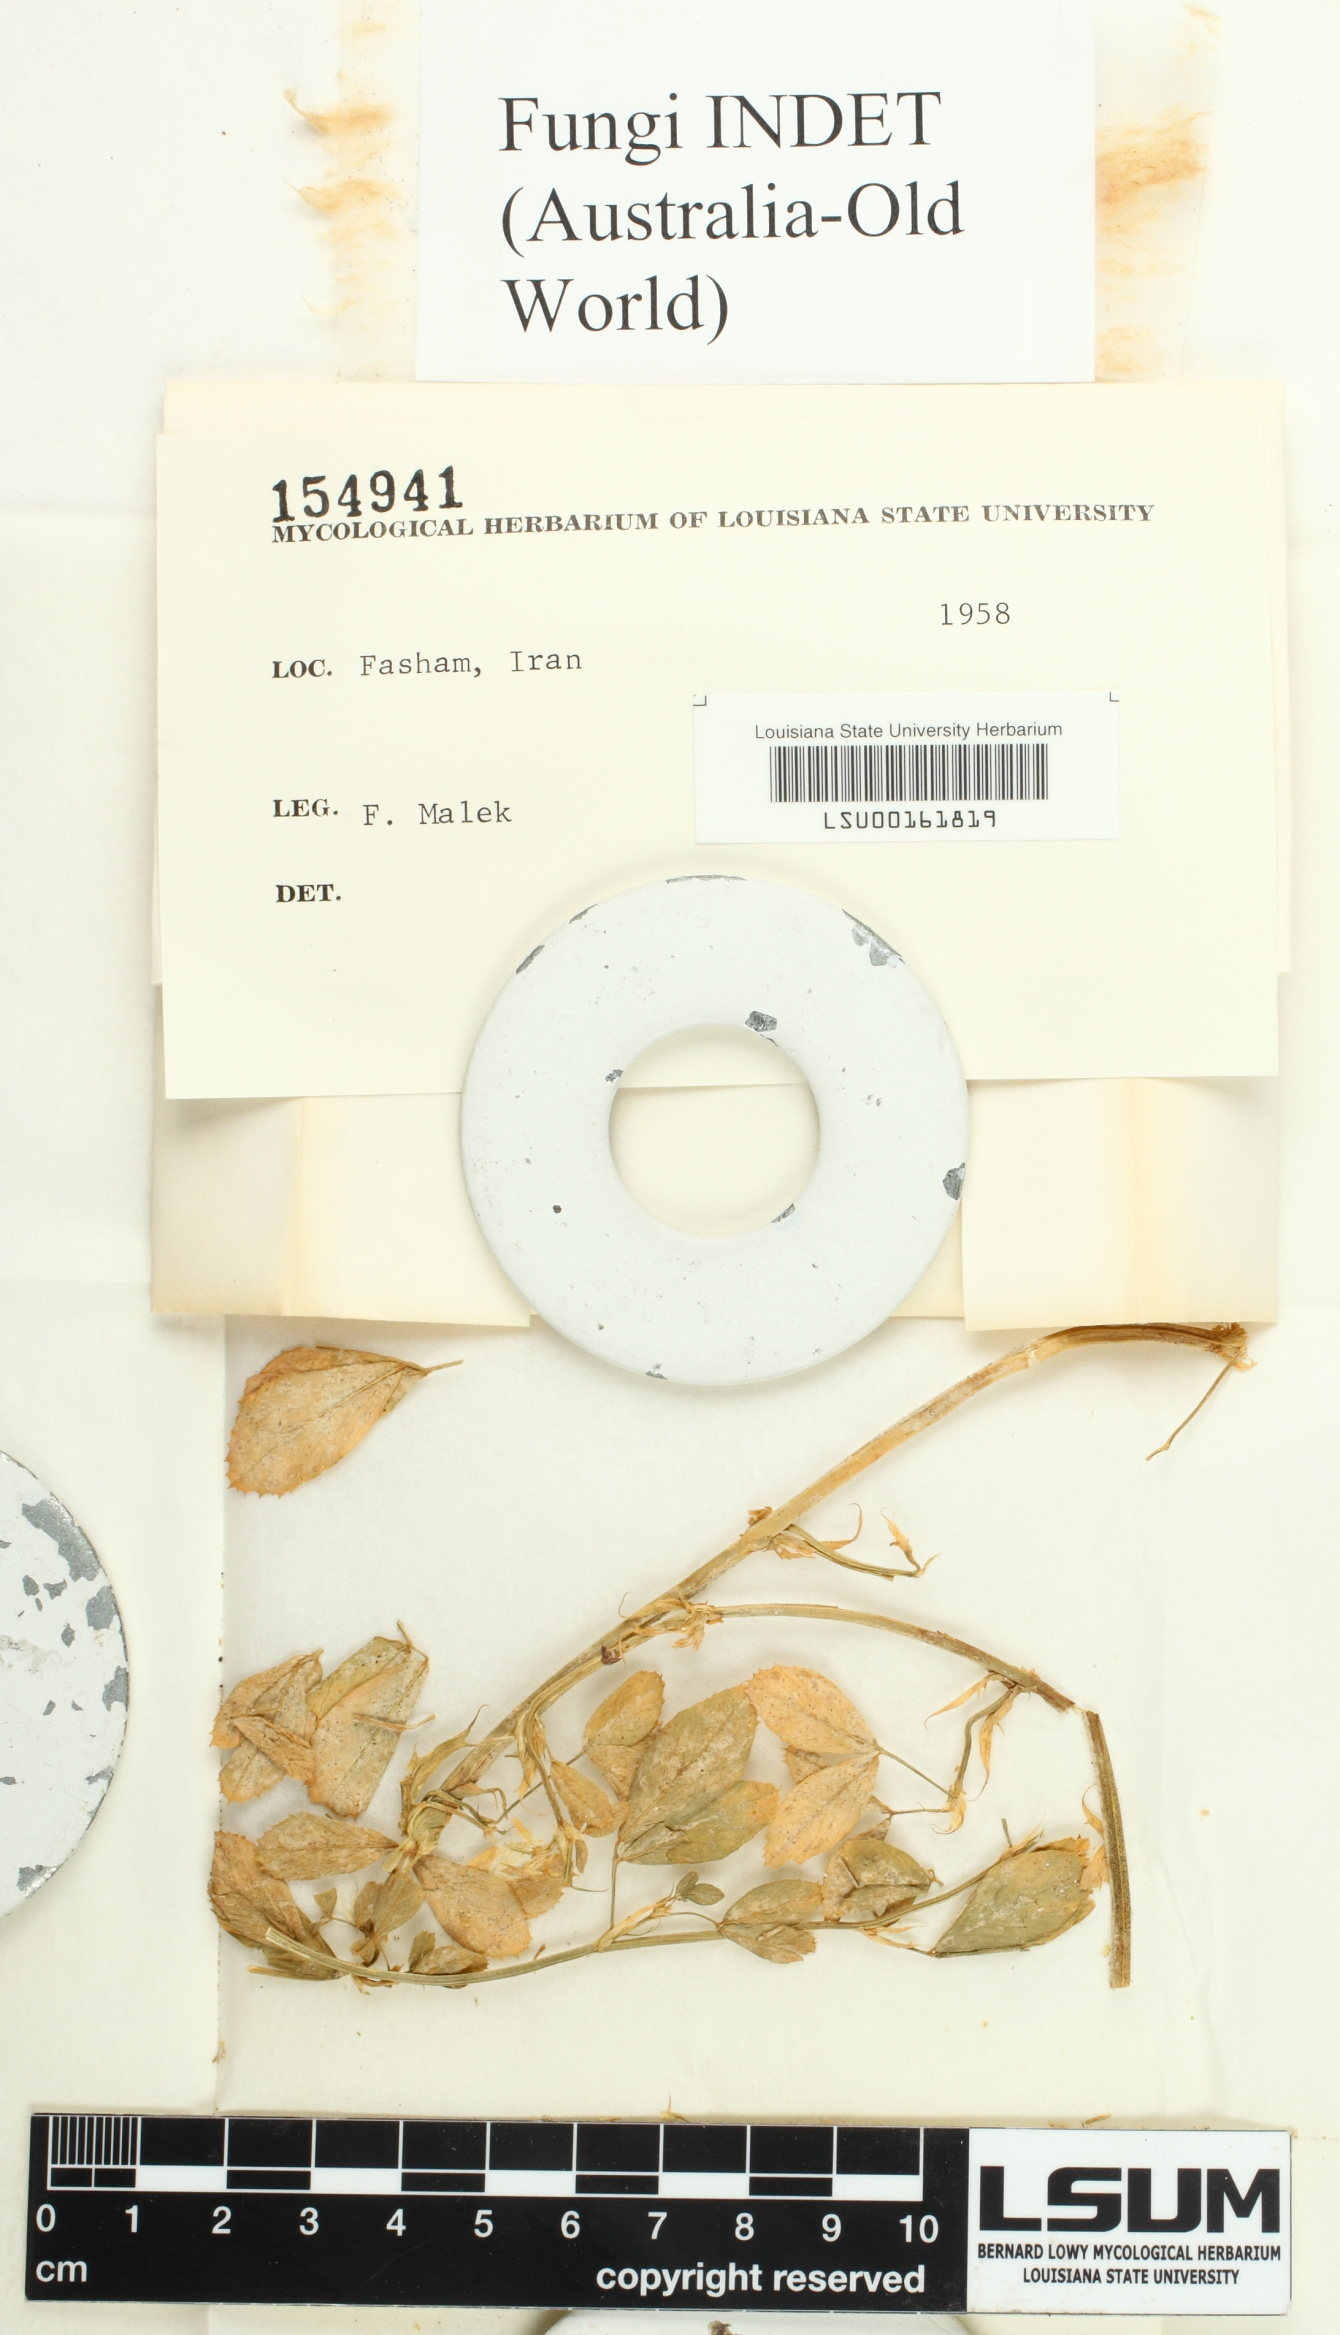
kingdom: Fungi
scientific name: Fungi
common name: Fungi
